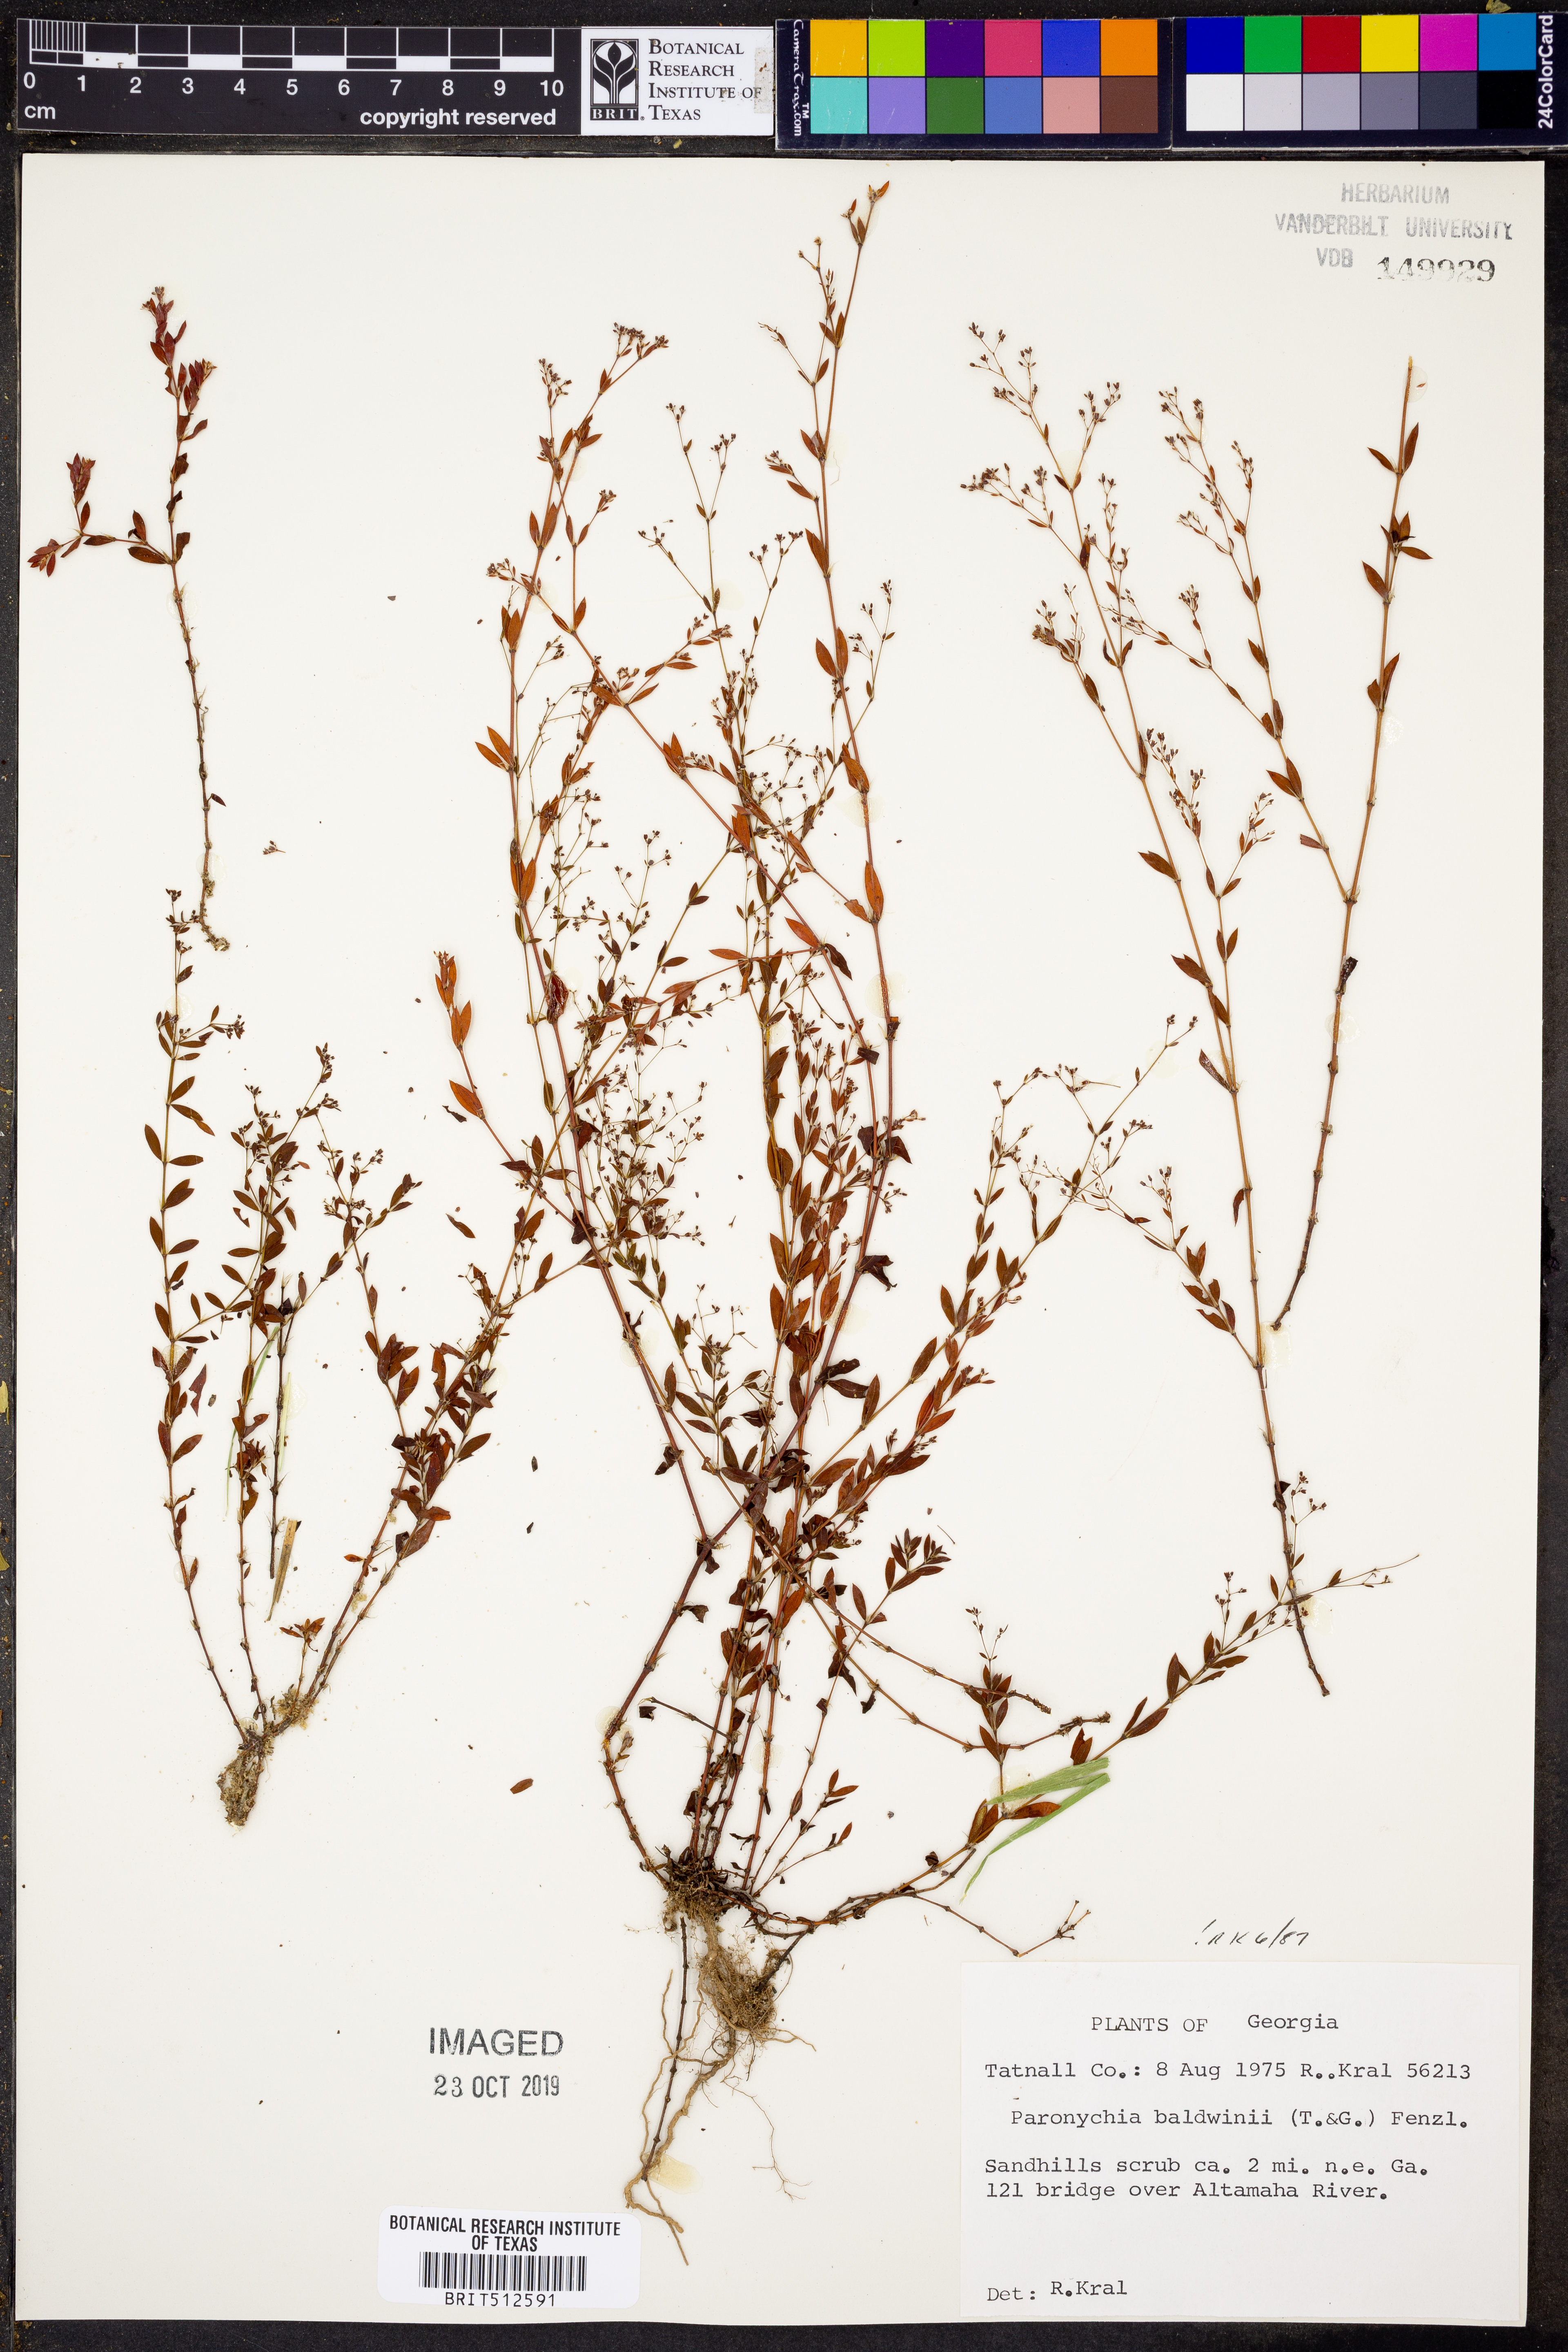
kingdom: Plantae
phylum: Tracheophyta
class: Magnoliopsida
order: Caryophyllales
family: Caryophyllaceae
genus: Paronychia
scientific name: Paronychia baldwinii
